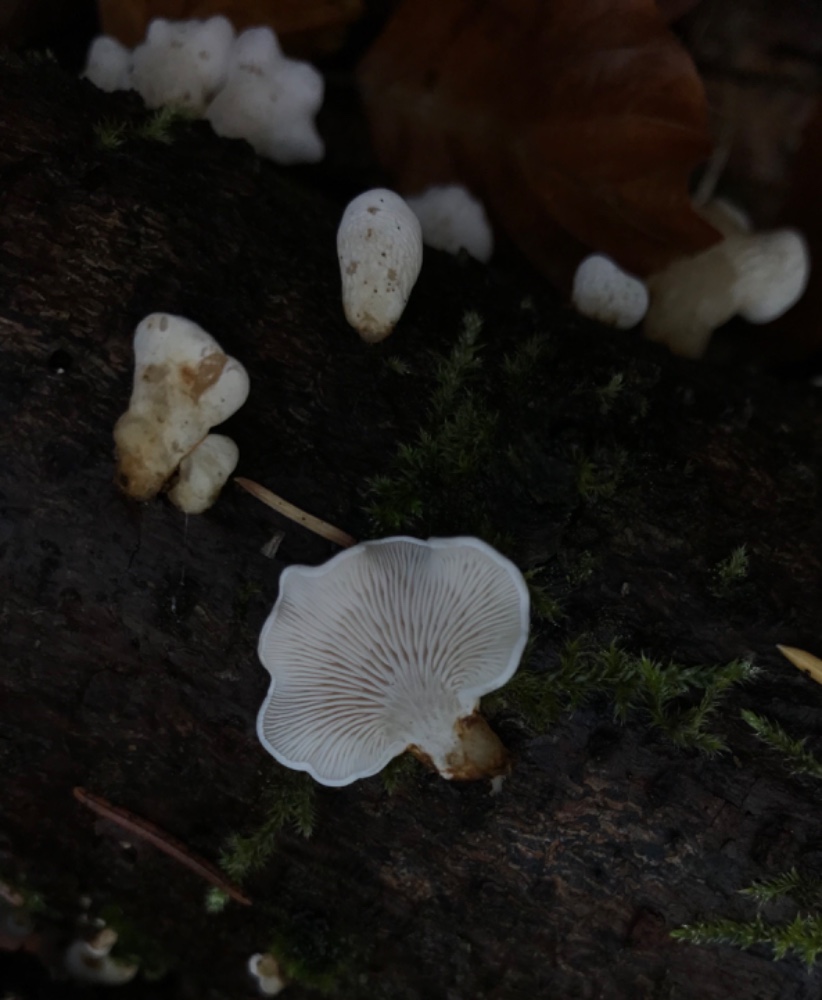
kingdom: Fungi
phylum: Basidiomycota
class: Agaricomycetes
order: Agaricales
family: Mycenaceae
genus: Panellus
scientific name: Panellus mitis
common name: mild epaulethat
